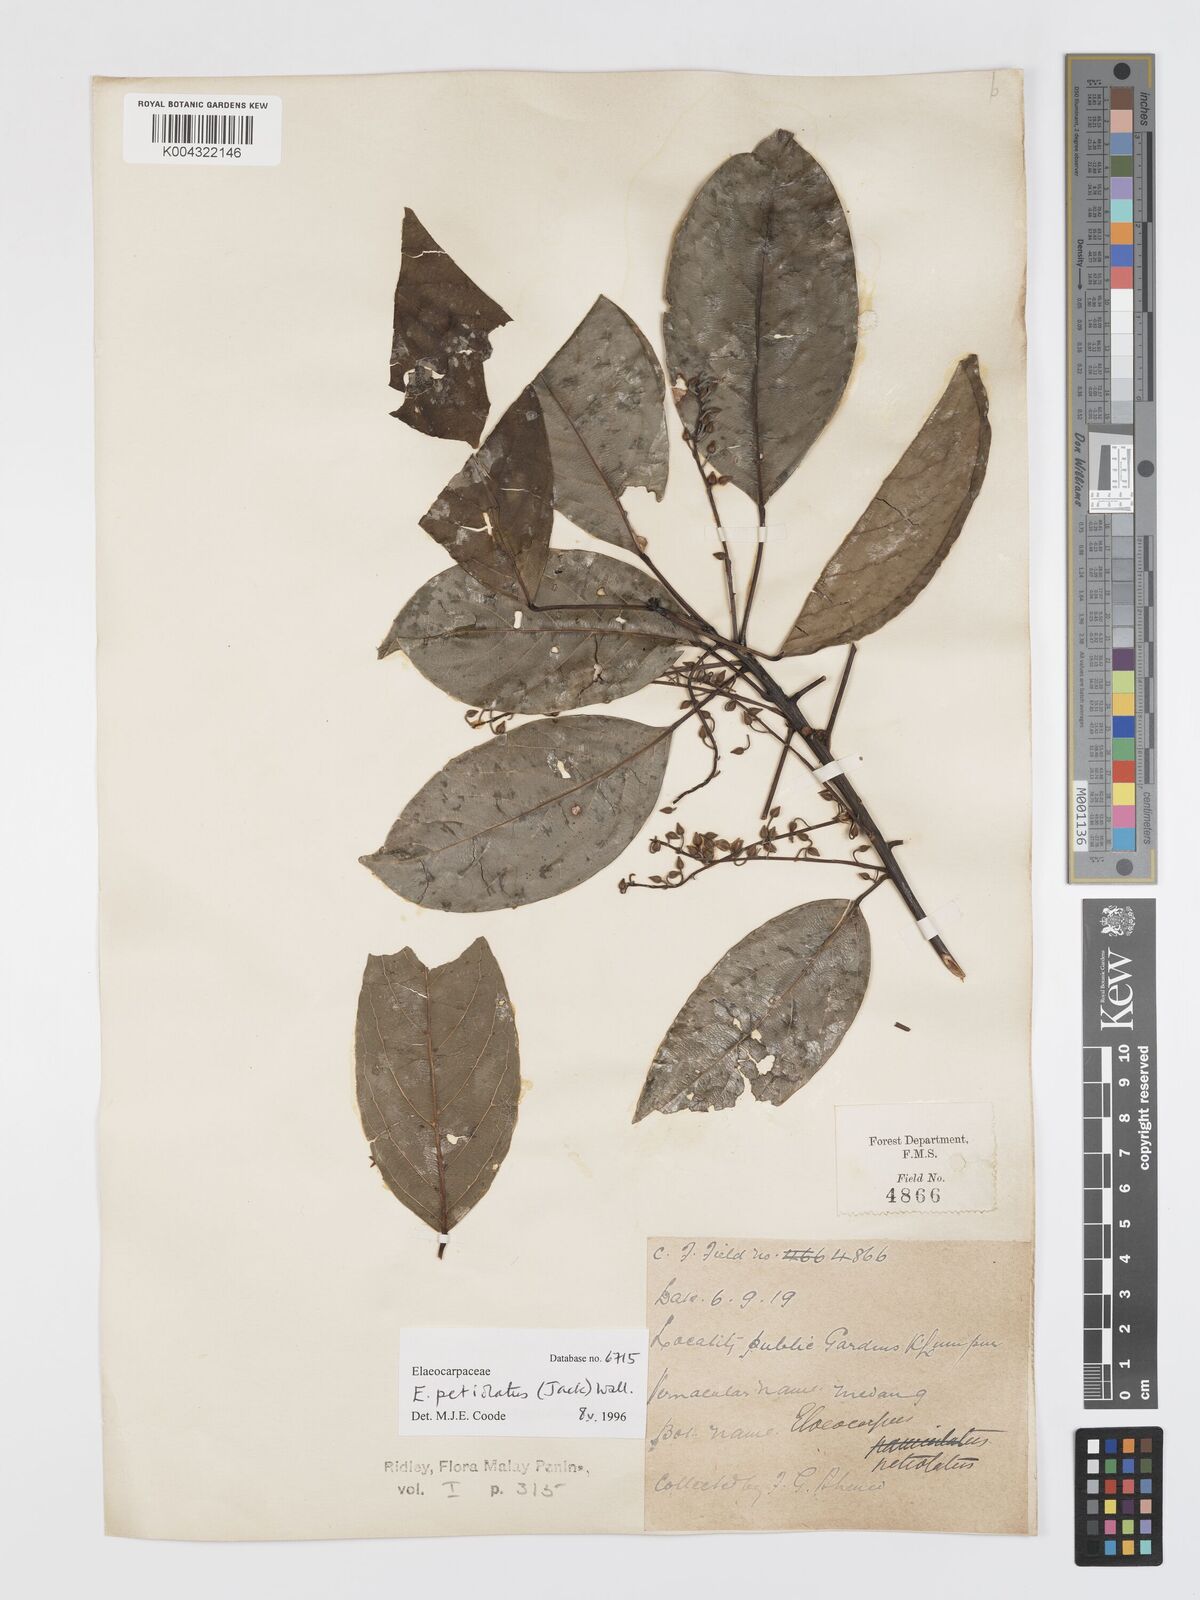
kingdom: Plantae
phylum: Tracheophyta
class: Magnoliopsida
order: Oxalidales
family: Elaeocarpaceae
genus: Elaeocarpus
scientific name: Elaeocarpus
